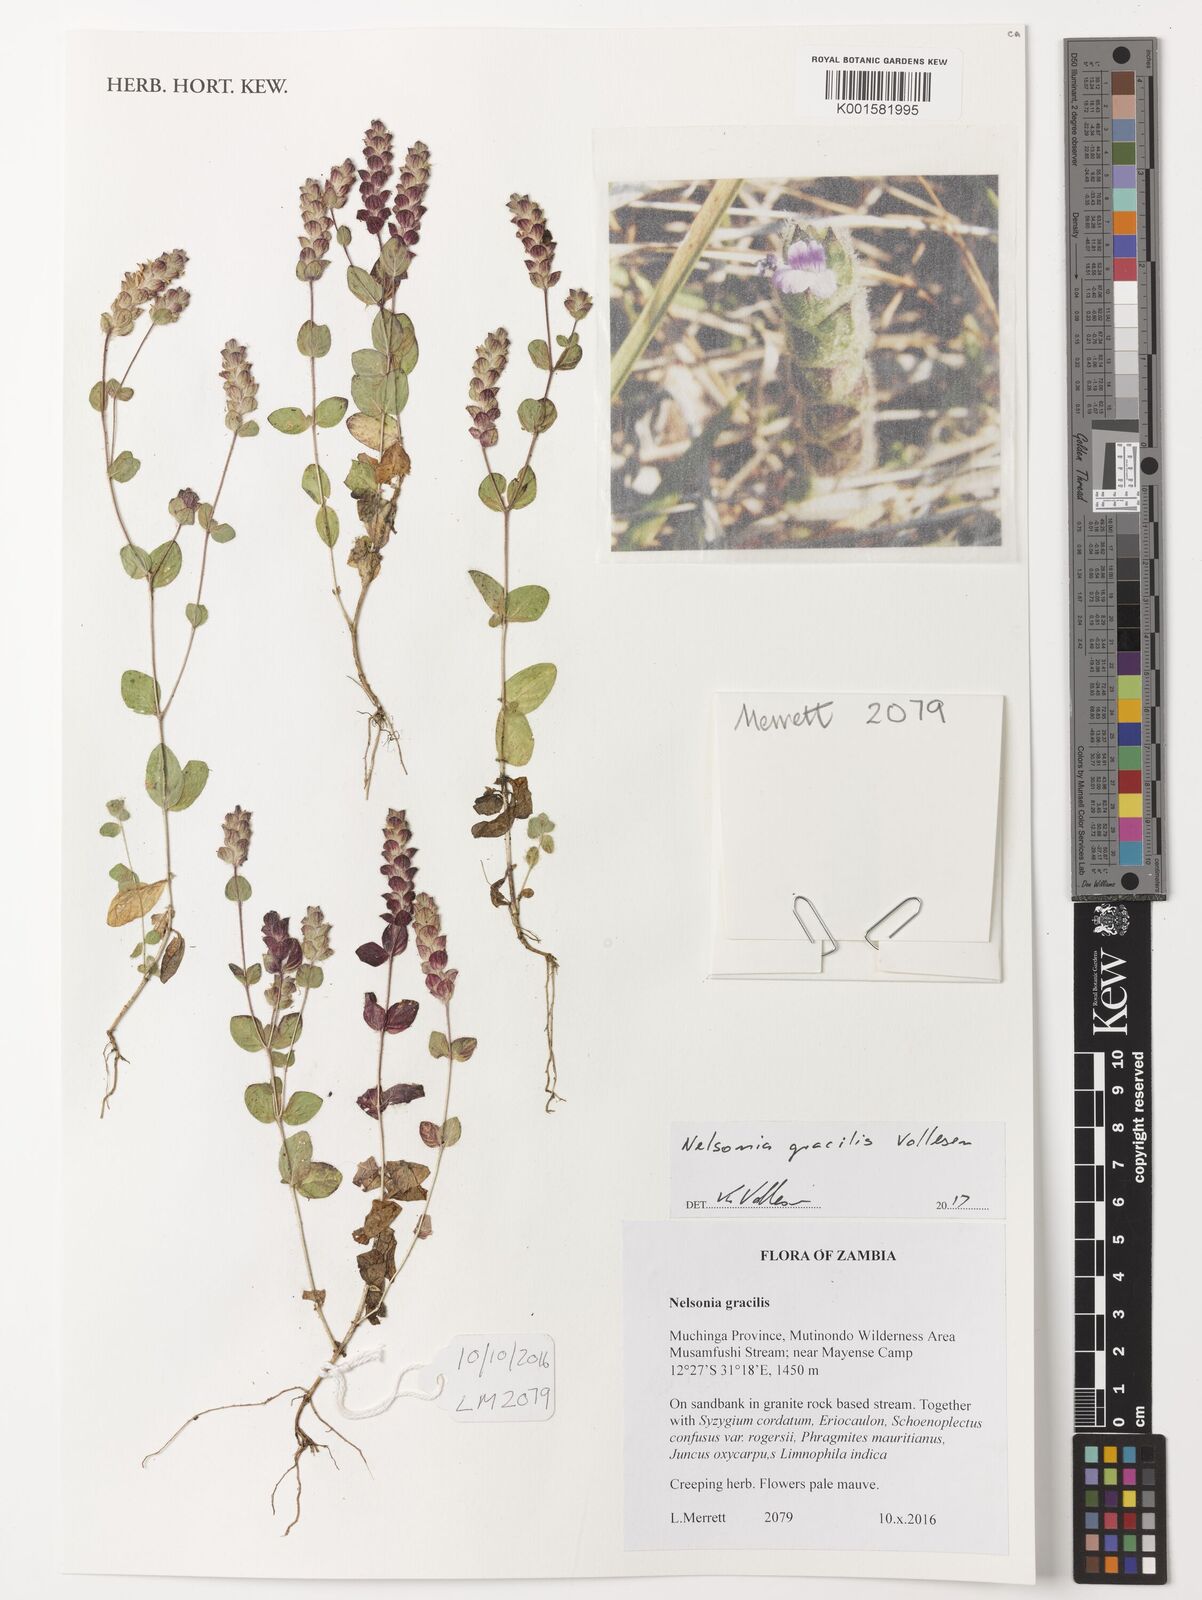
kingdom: Plantae
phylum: Tracheophyta
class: Magnoliopsida
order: Lamiales
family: Acanthaceae
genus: Nelsonia
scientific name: Nelsonia gracilis
